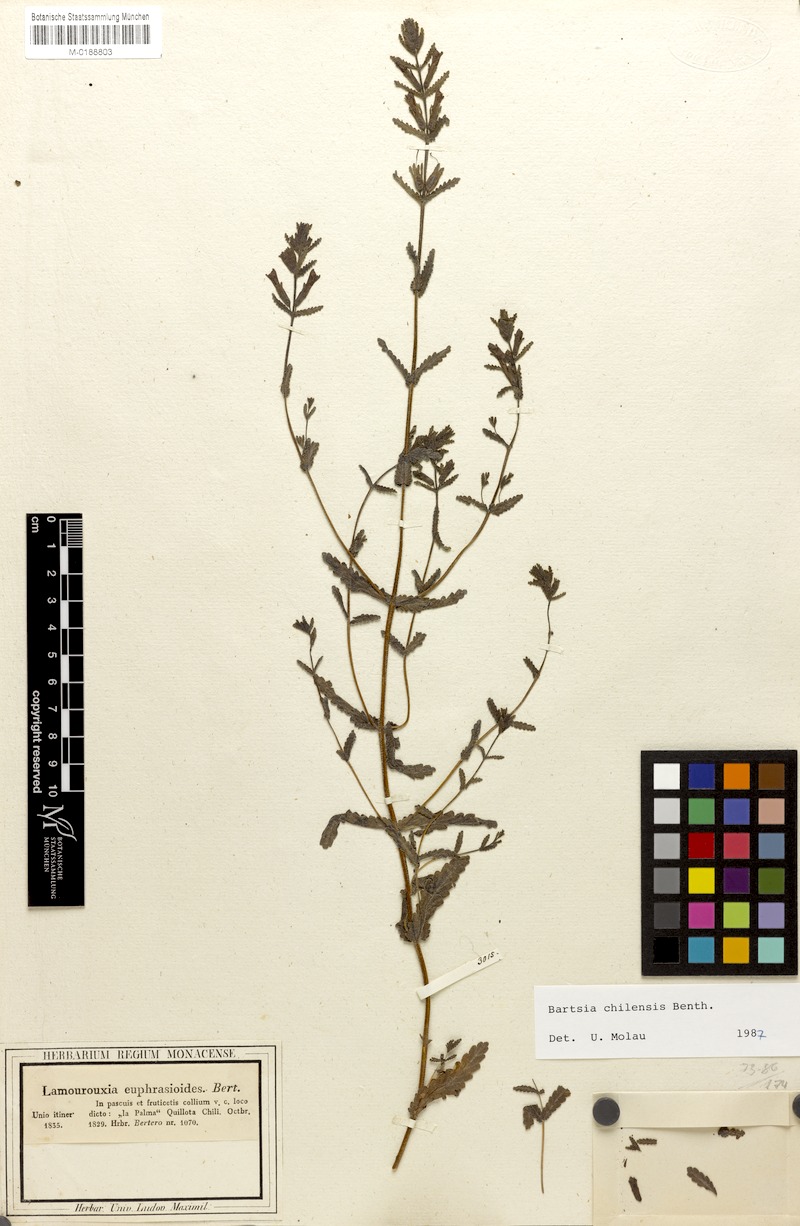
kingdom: Plantae
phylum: Tracheophyta
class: Magnoliopsida
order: Lamiales
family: Orobanchaceae
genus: Neobartsia
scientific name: Neobartsia chilensis
